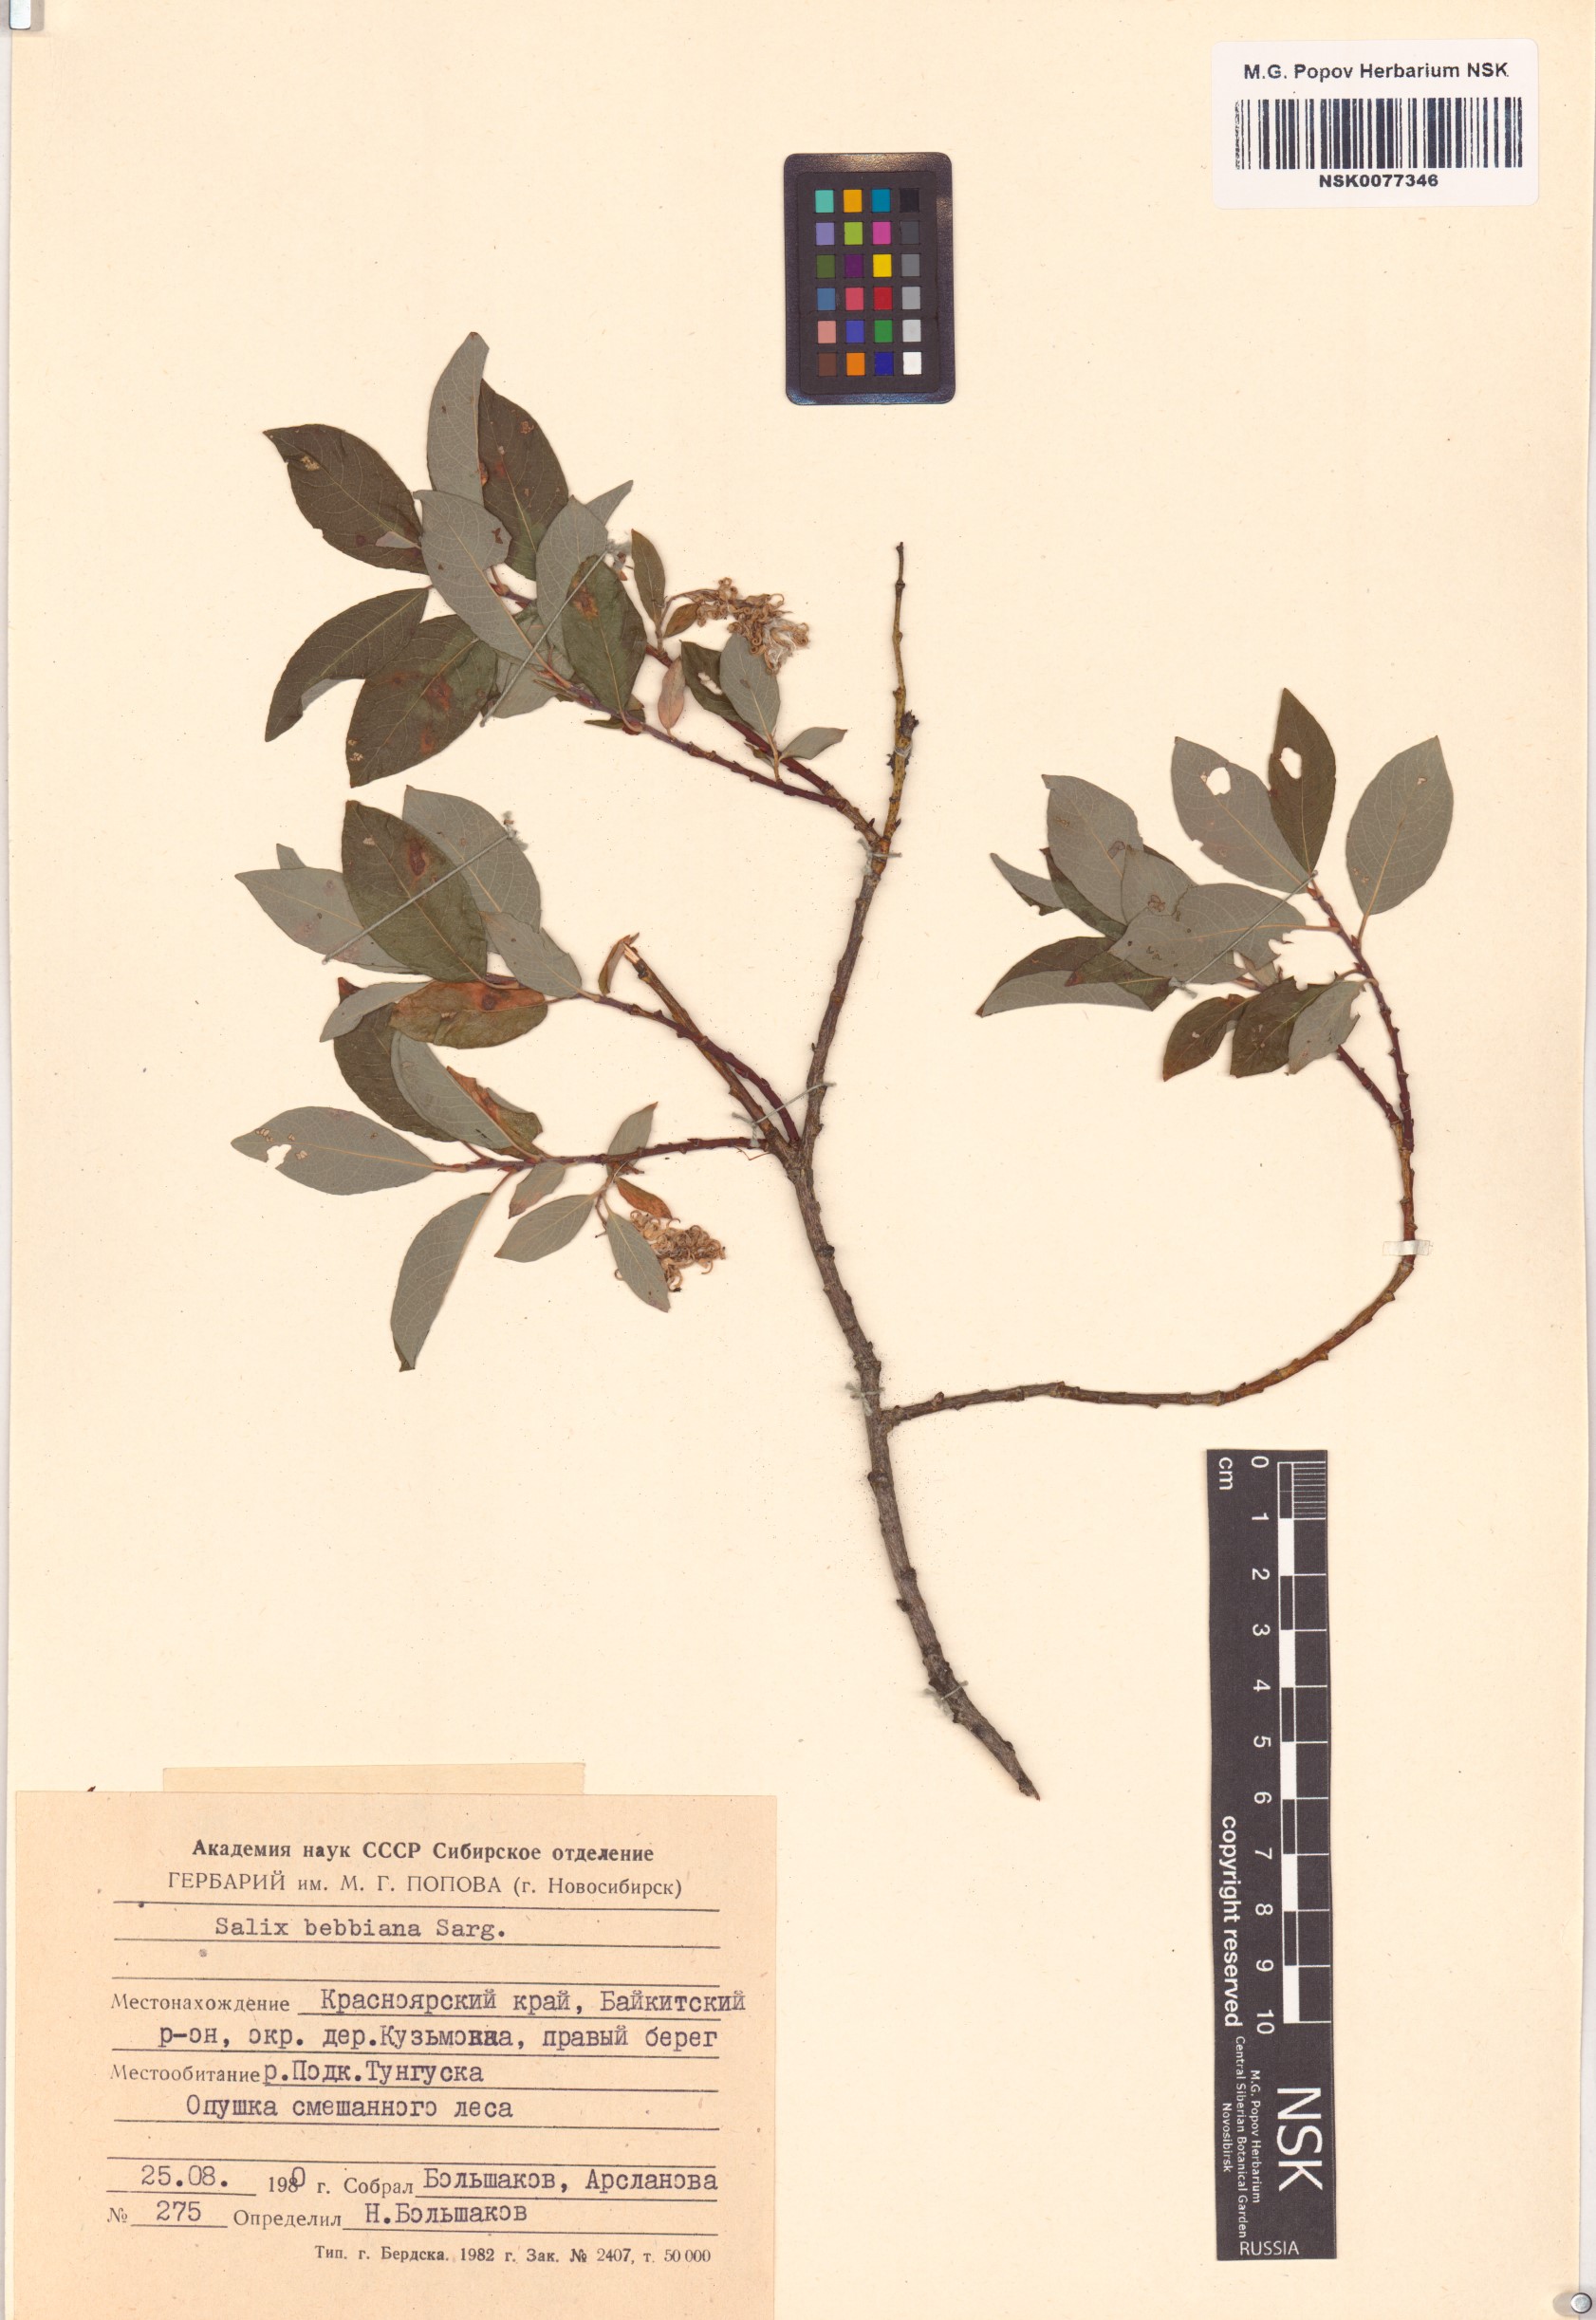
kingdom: Plantae
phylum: Tracheophyta
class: Magnoliopsida
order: Malpighiales
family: Salicaceae
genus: Salix
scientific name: Salix bebbiana
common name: Bebb's willow
